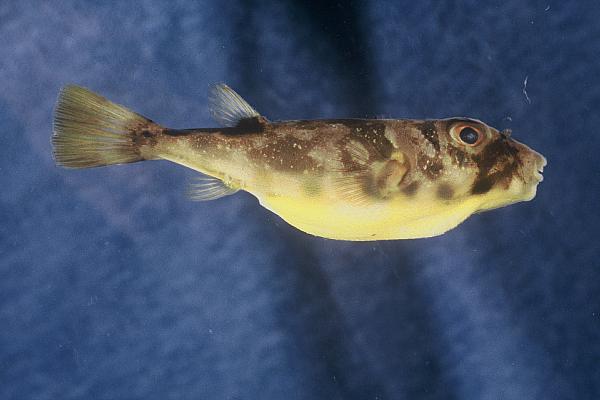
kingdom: Animalia
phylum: Chordata
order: Tetraodontiformes
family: Tetraodontidae
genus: Sphoeroides
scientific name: Sphoeroides spengleri
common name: Bandtail puffer
